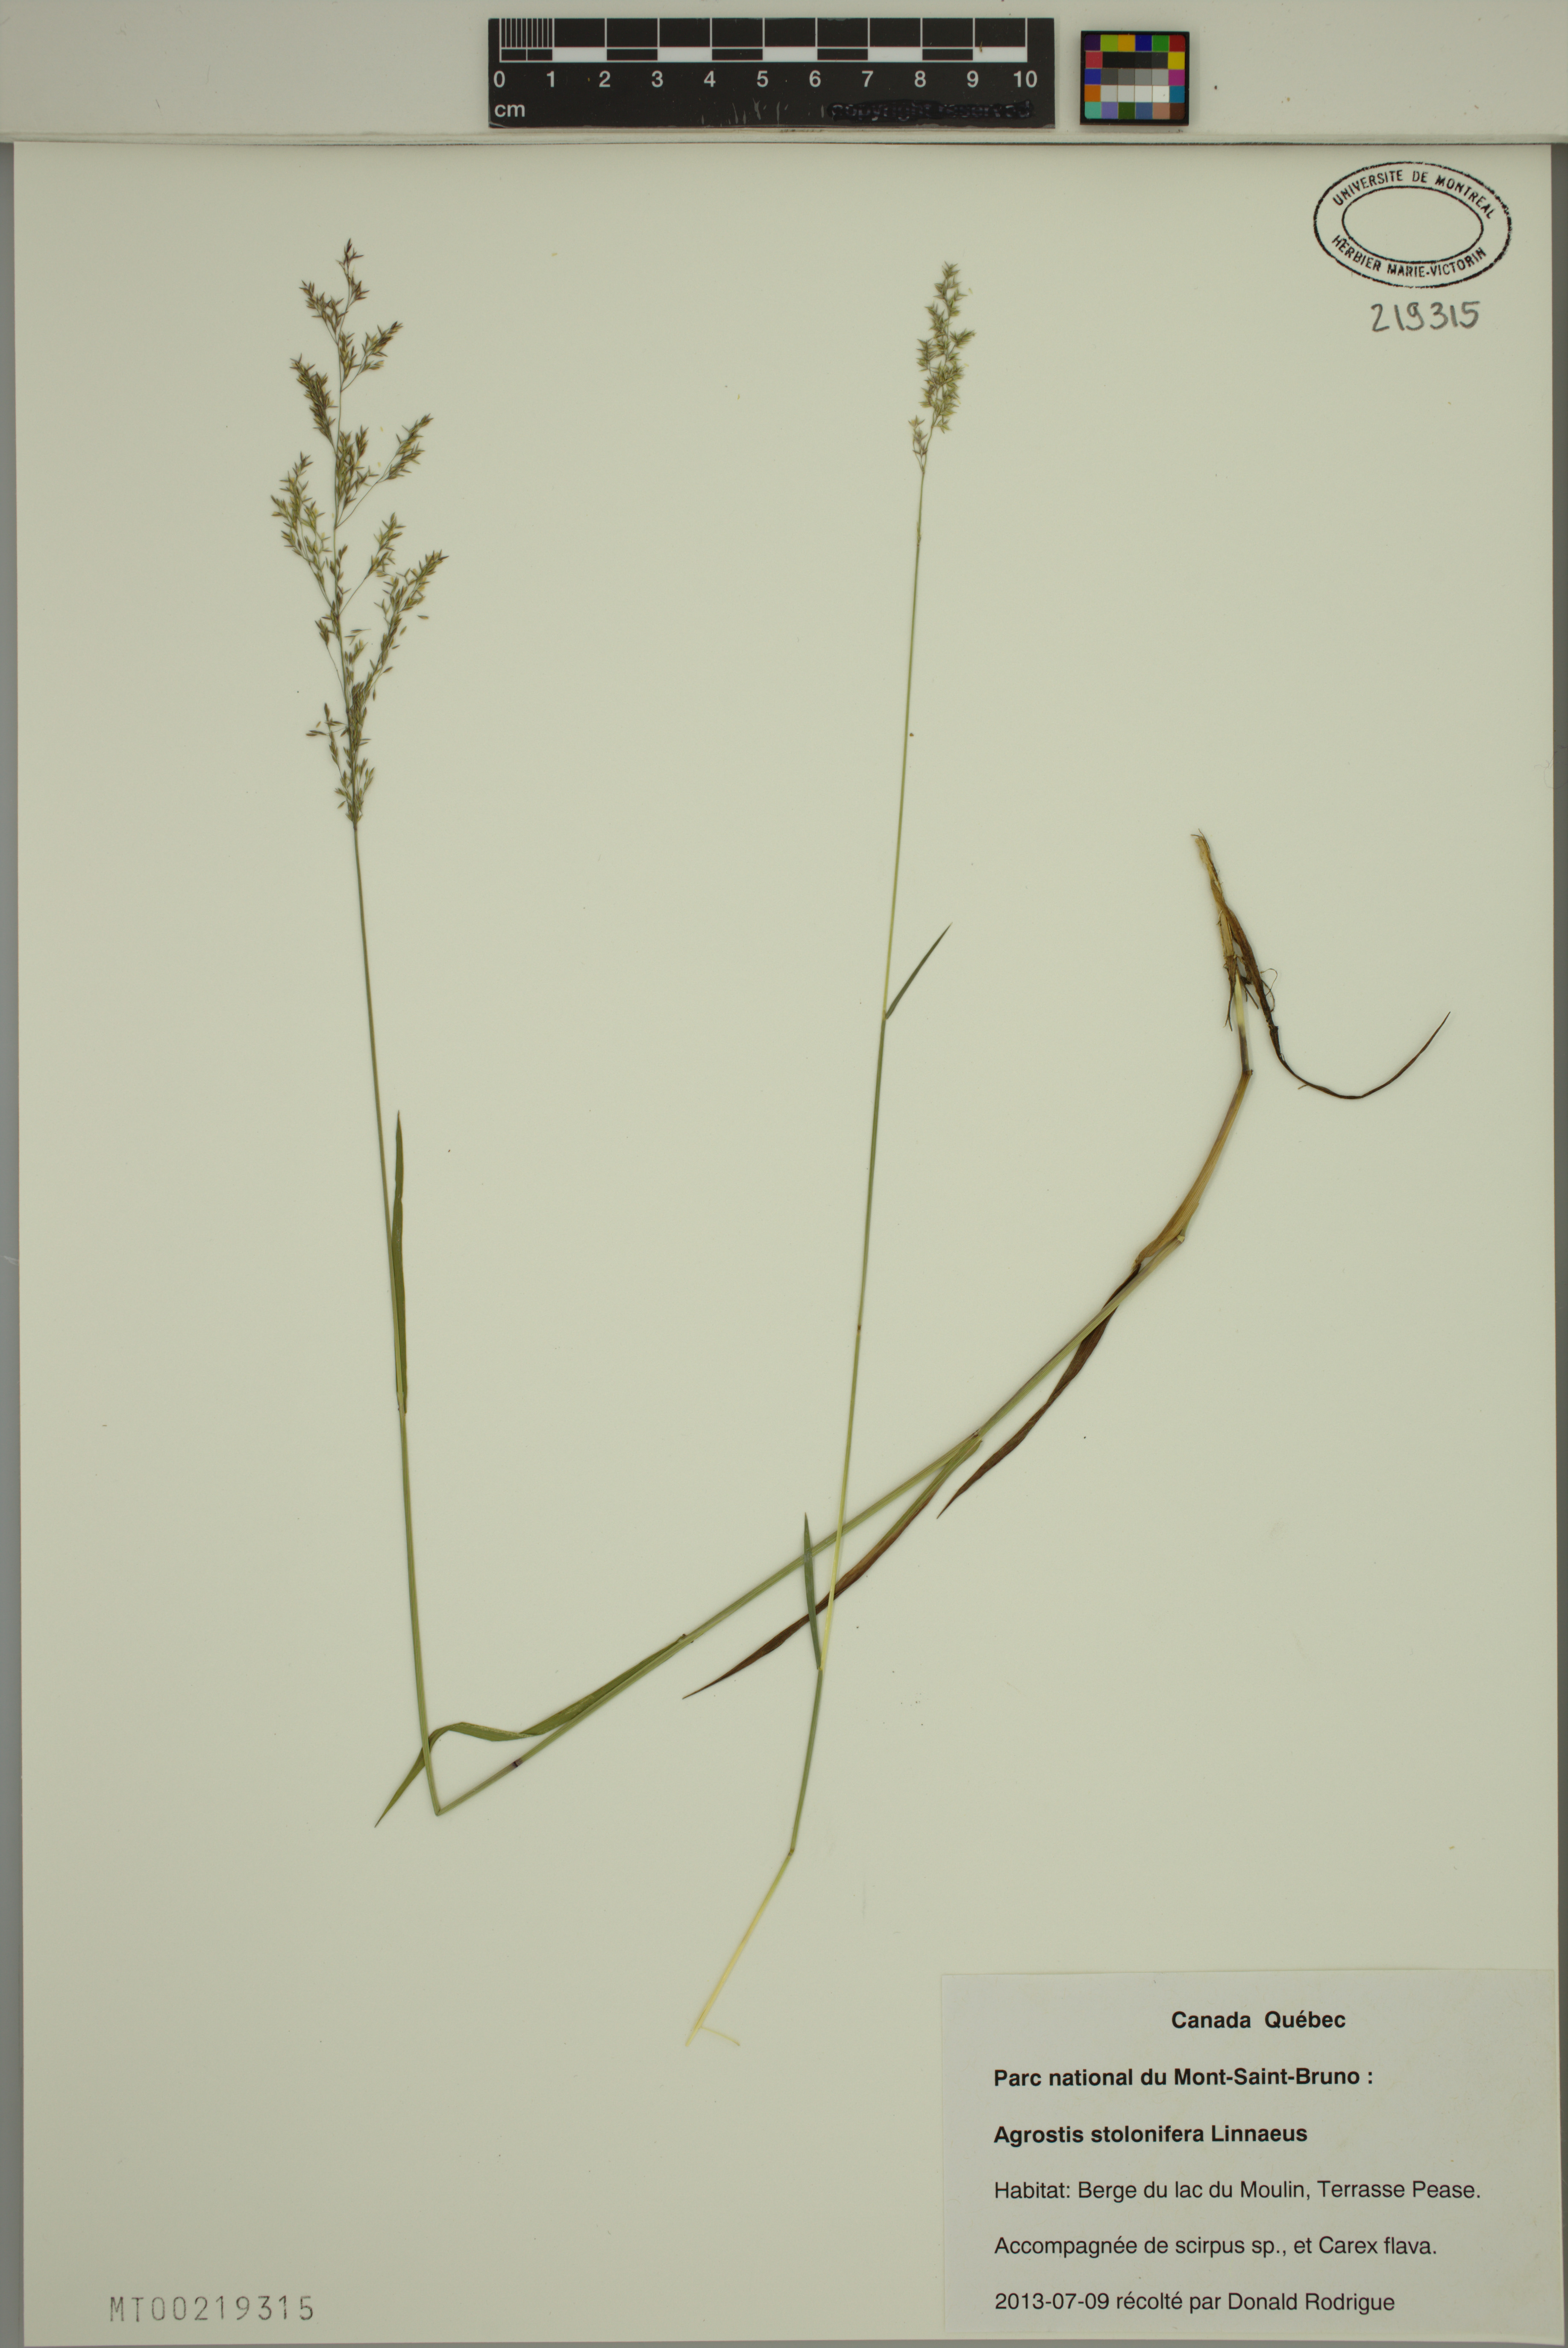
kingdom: Plantae
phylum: Tracheophyta
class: Liliopsida
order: Poales
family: Poaceae
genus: Agrostis
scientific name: Agrostis stolonifera
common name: Creeping bentgrass
